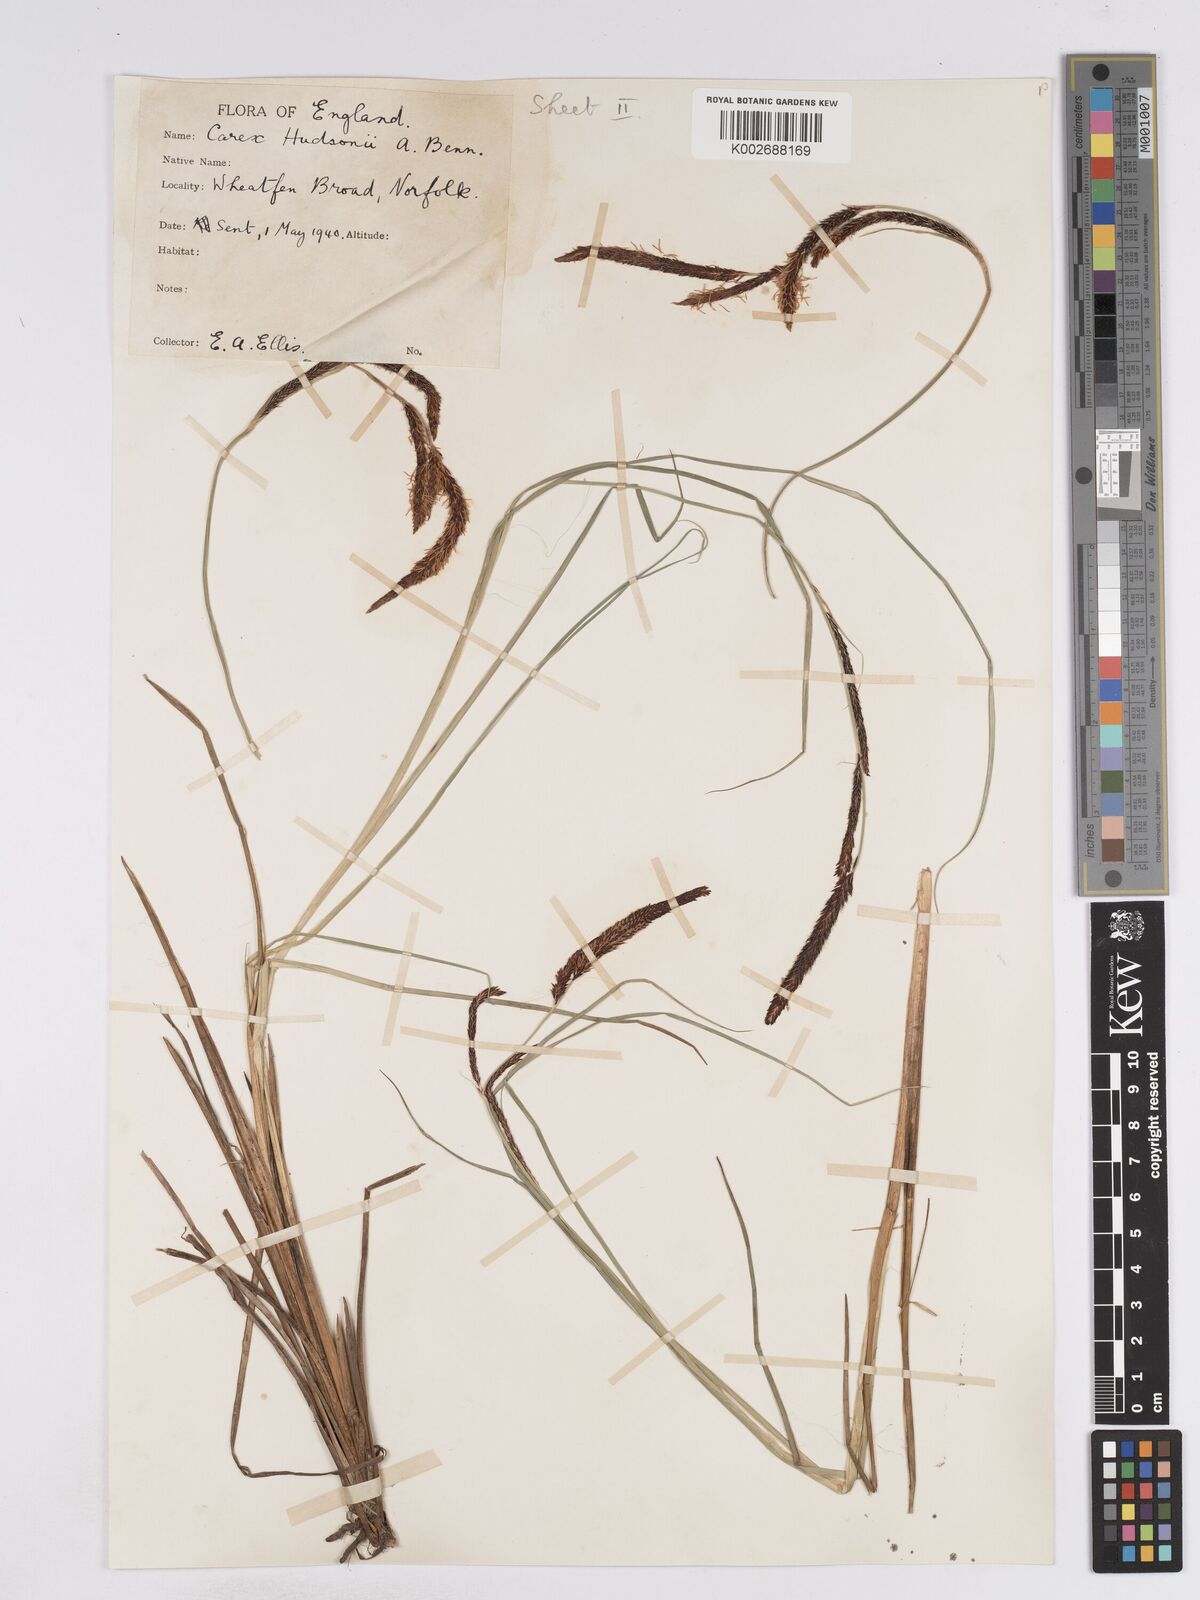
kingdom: Plantae
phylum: Tracheophyta
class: Liliopsida
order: Poales
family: Cyperaceae
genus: Carex
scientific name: Carex elata
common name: Tufted sedge
